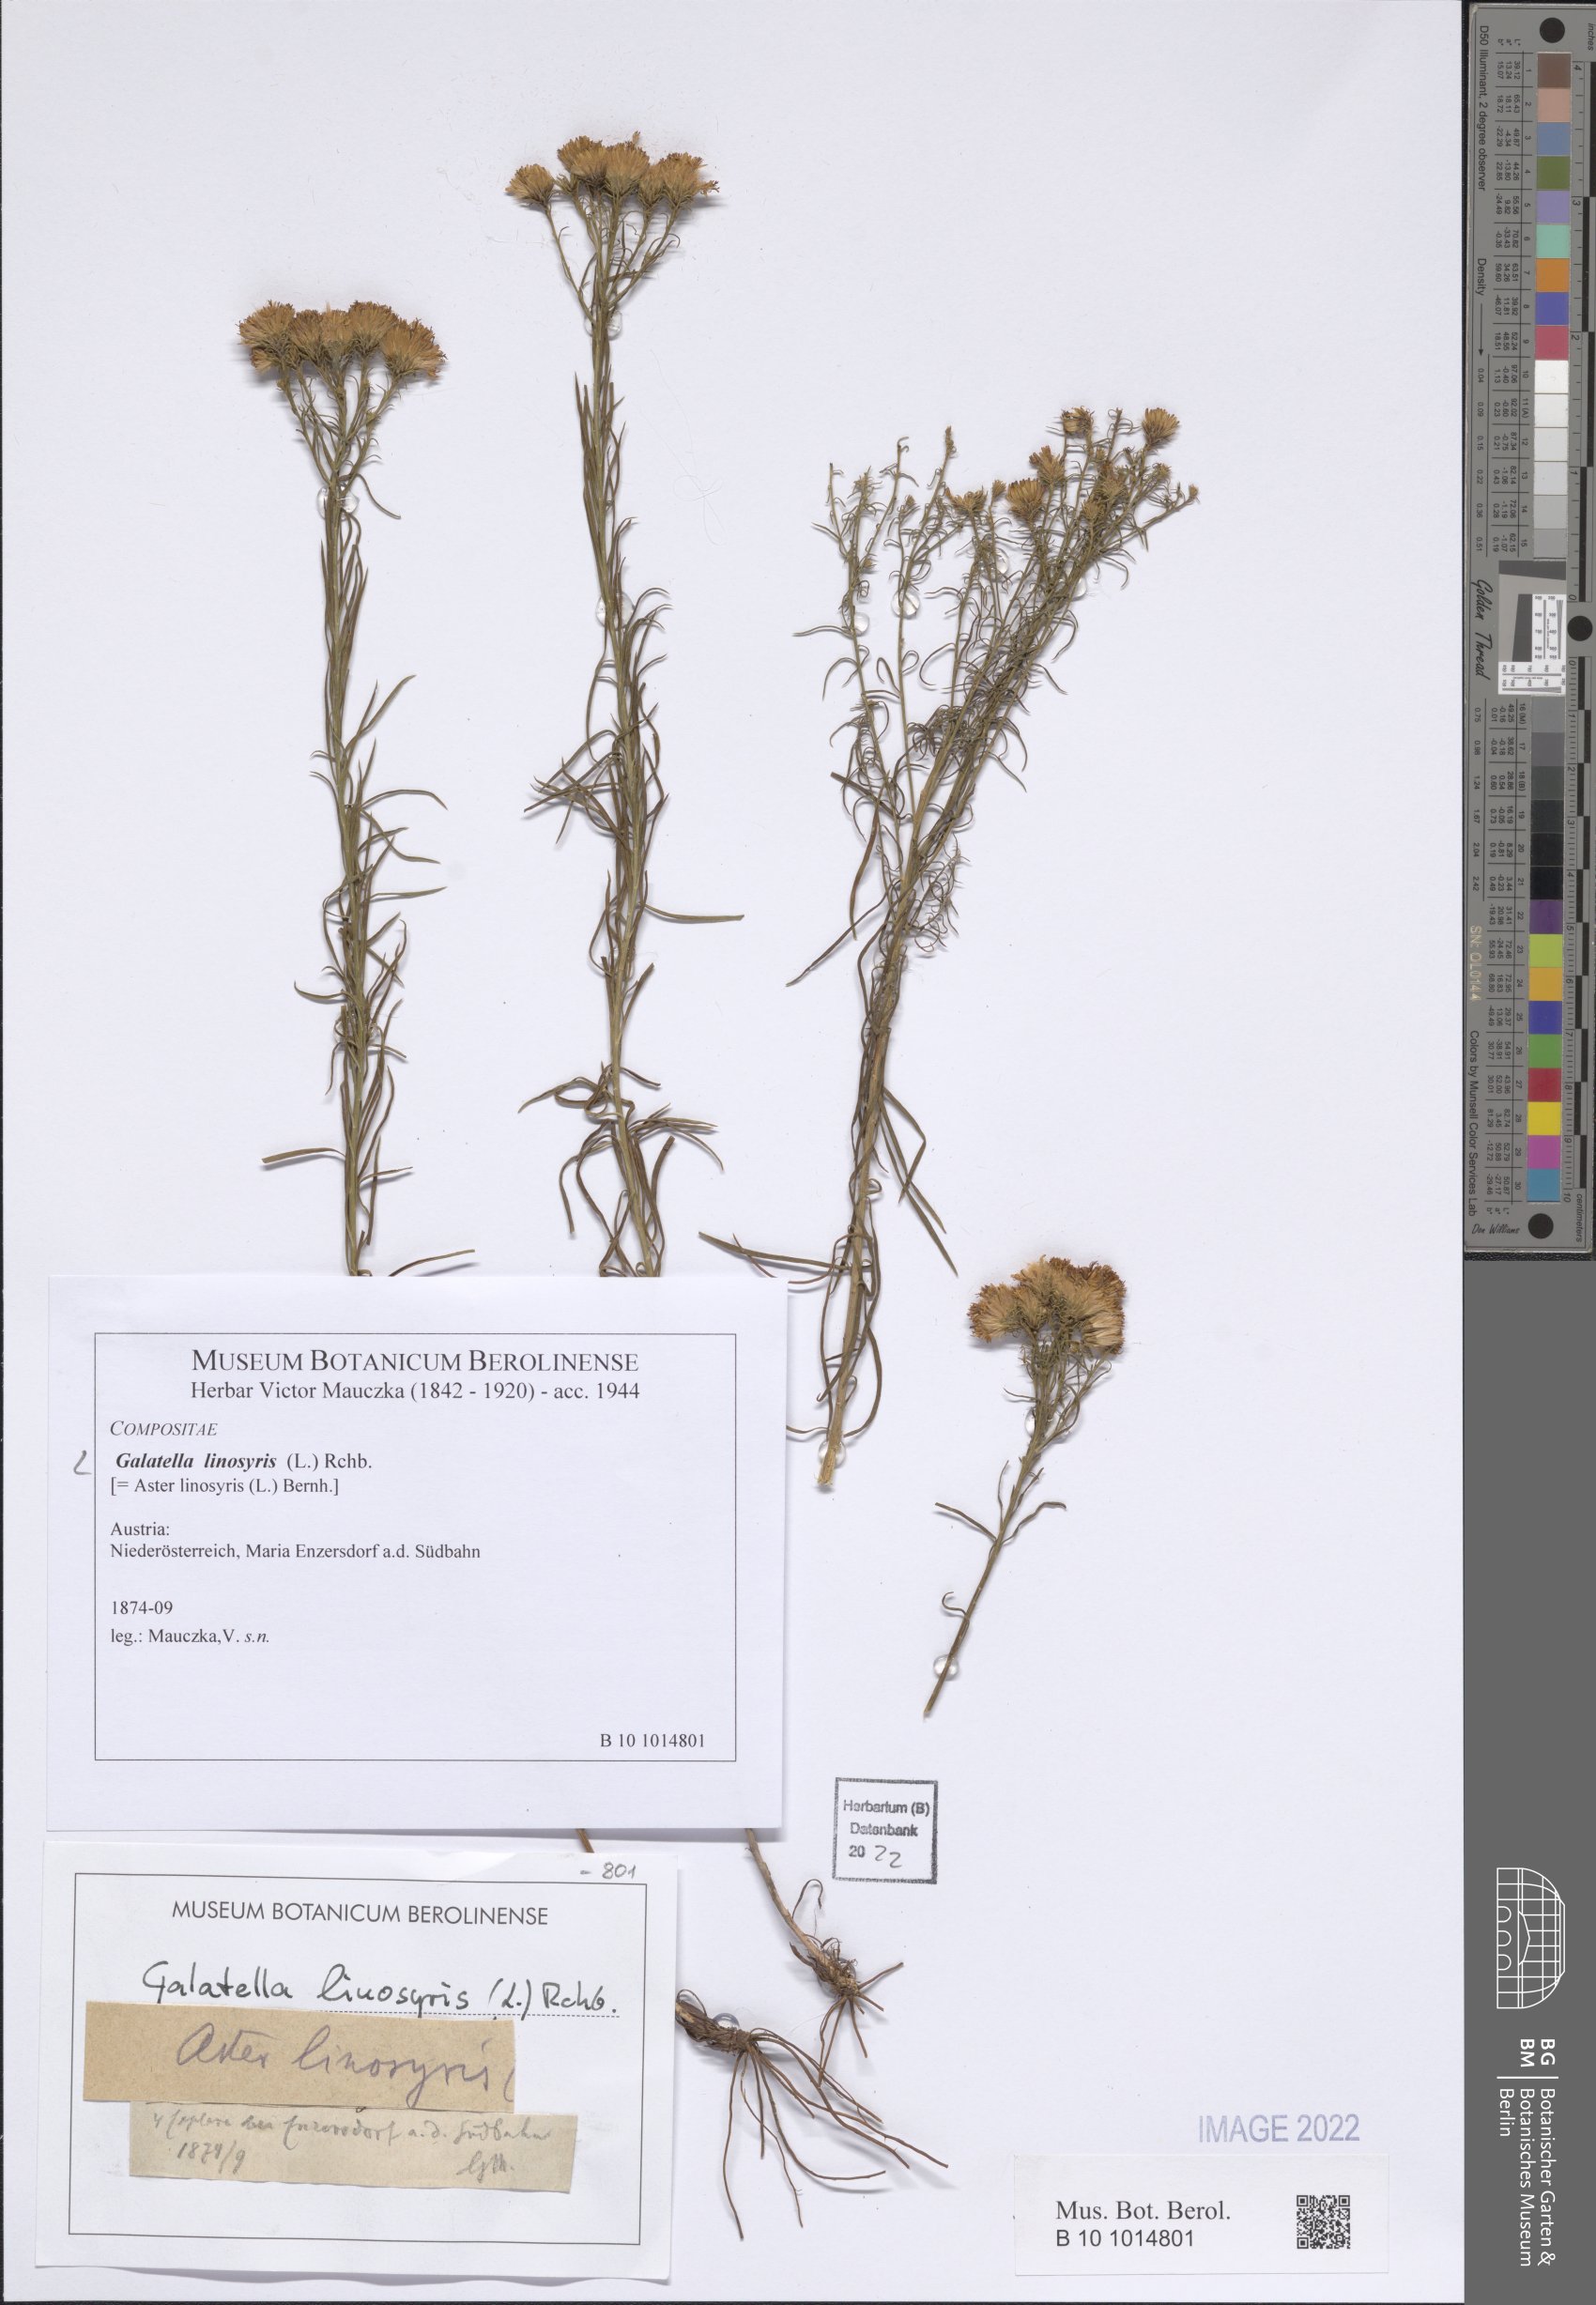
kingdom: Plantae
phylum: Tracheophyta
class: Magnoliopsida
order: Asterales
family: Asteraceae
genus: Galatella
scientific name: Galatella linosyris
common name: Goldilocks aster
